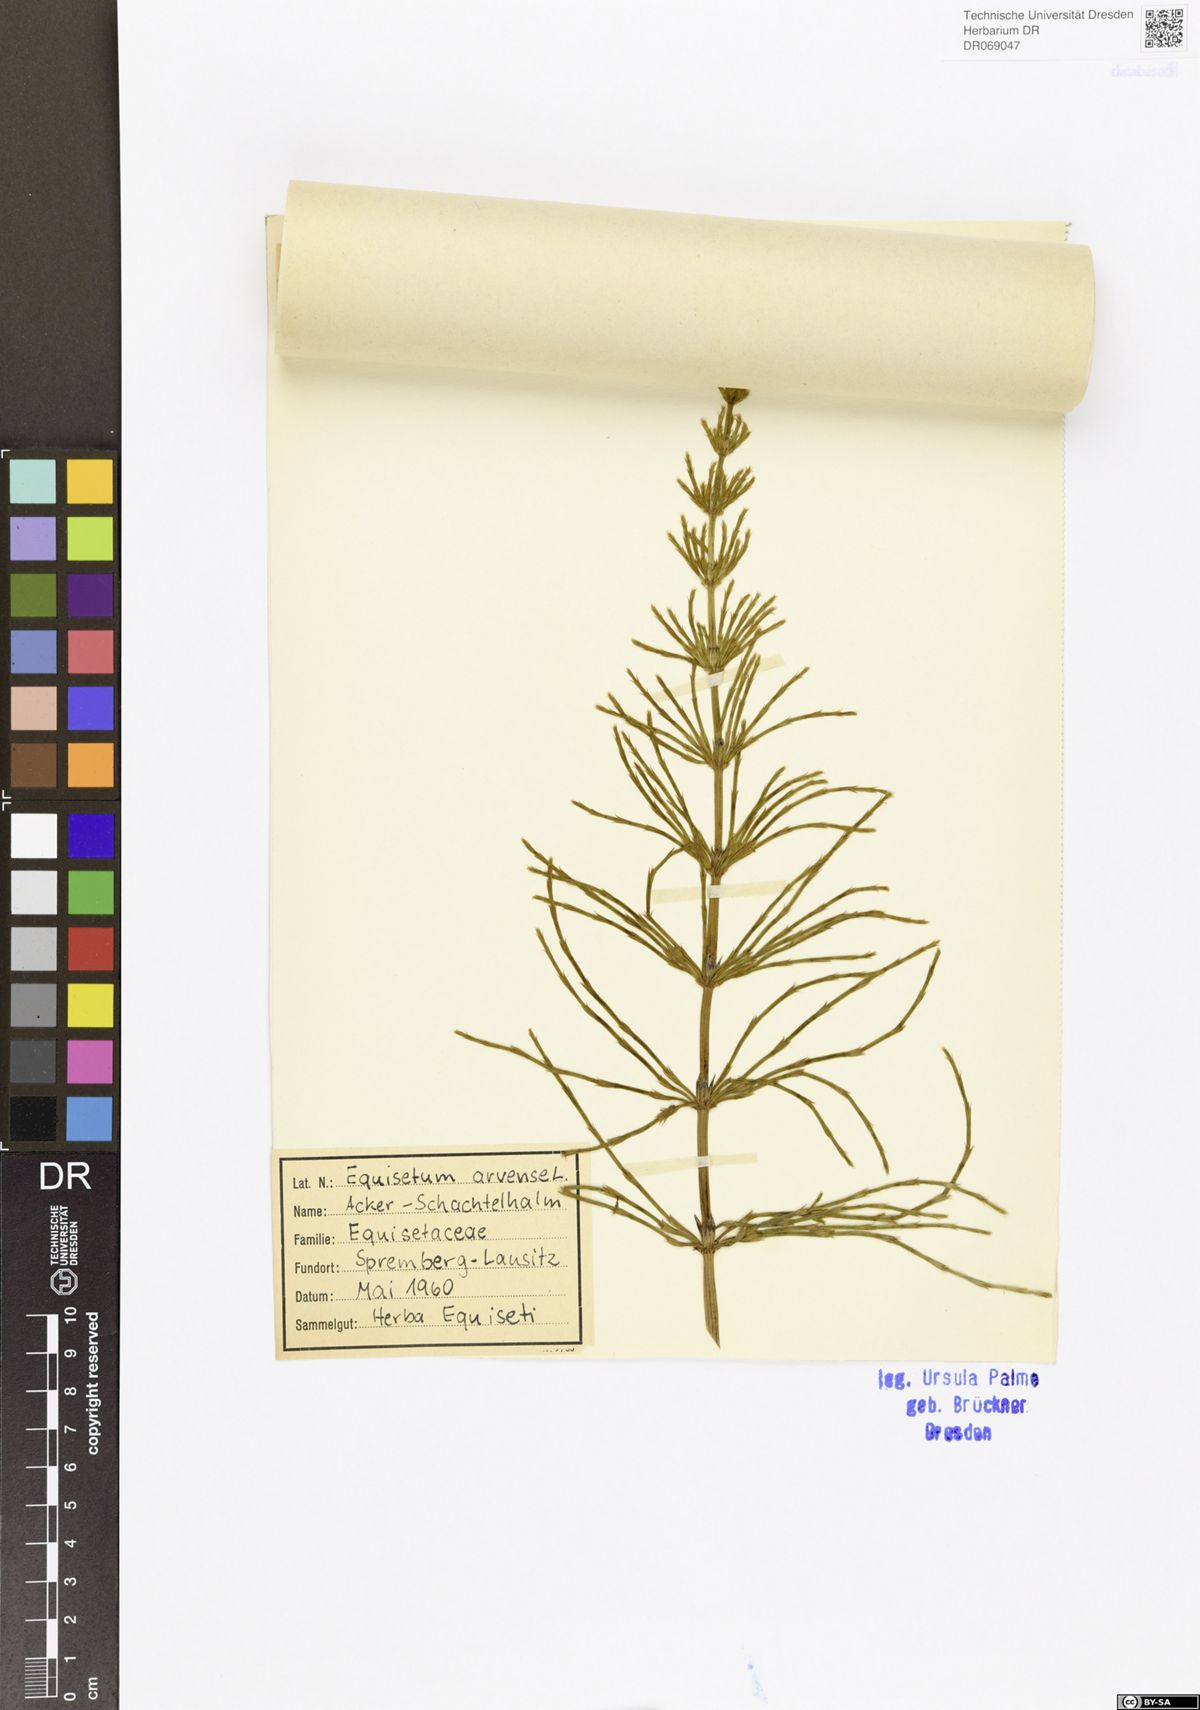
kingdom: Plantae
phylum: Tracheophyta
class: Polypodiopsida
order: Equisetales
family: Equisetaceae
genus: Equisetum
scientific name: Equisetum arvense
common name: Field horsetail
